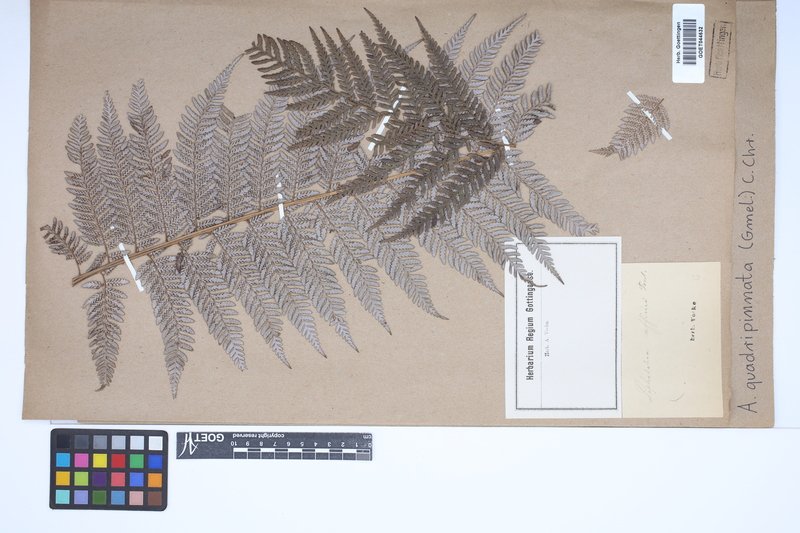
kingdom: Plantae
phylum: Tracheophyta
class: Polypodiopsida
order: Cyatheales
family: Dicksoniaceae
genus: Lophosoria
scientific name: Lophosoria quadripinnata
